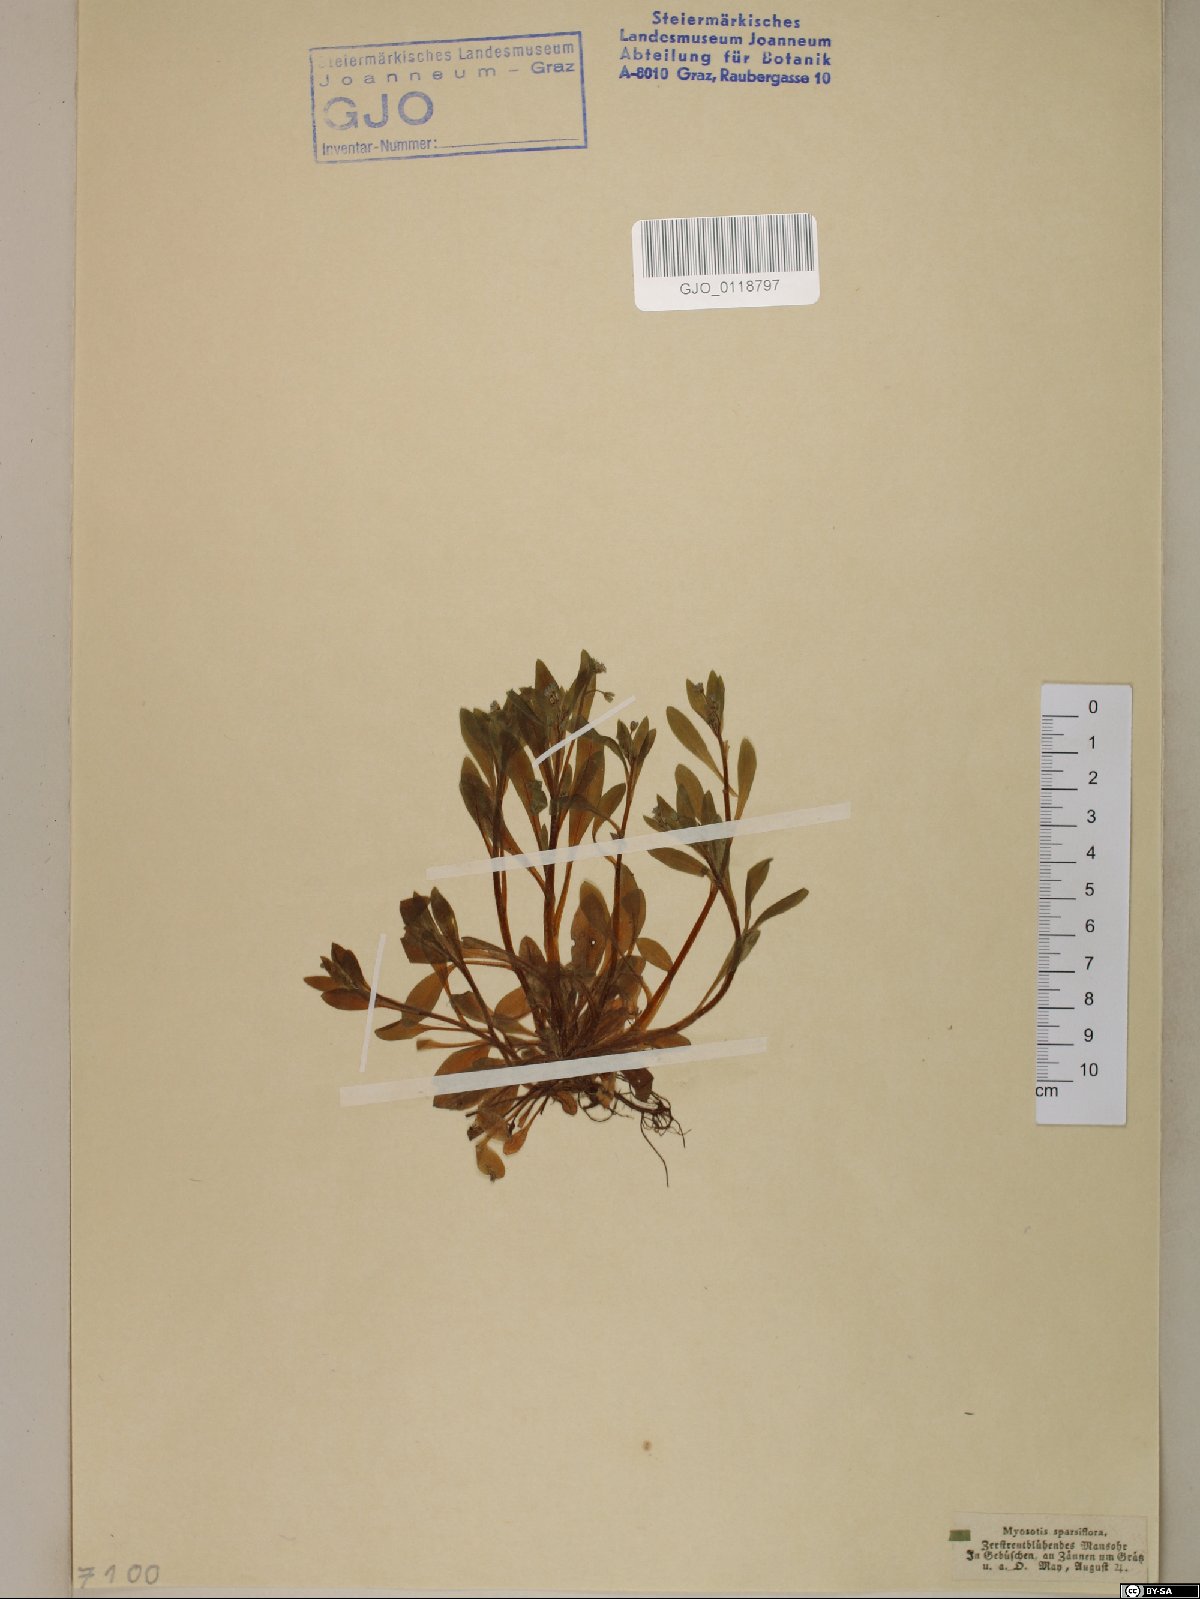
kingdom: Plantae
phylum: Tracheophyta
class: Magnoliopsida
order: Boraginales
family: Boraginaceae
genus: Myosotis
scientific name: Myosotis sparsiflora
